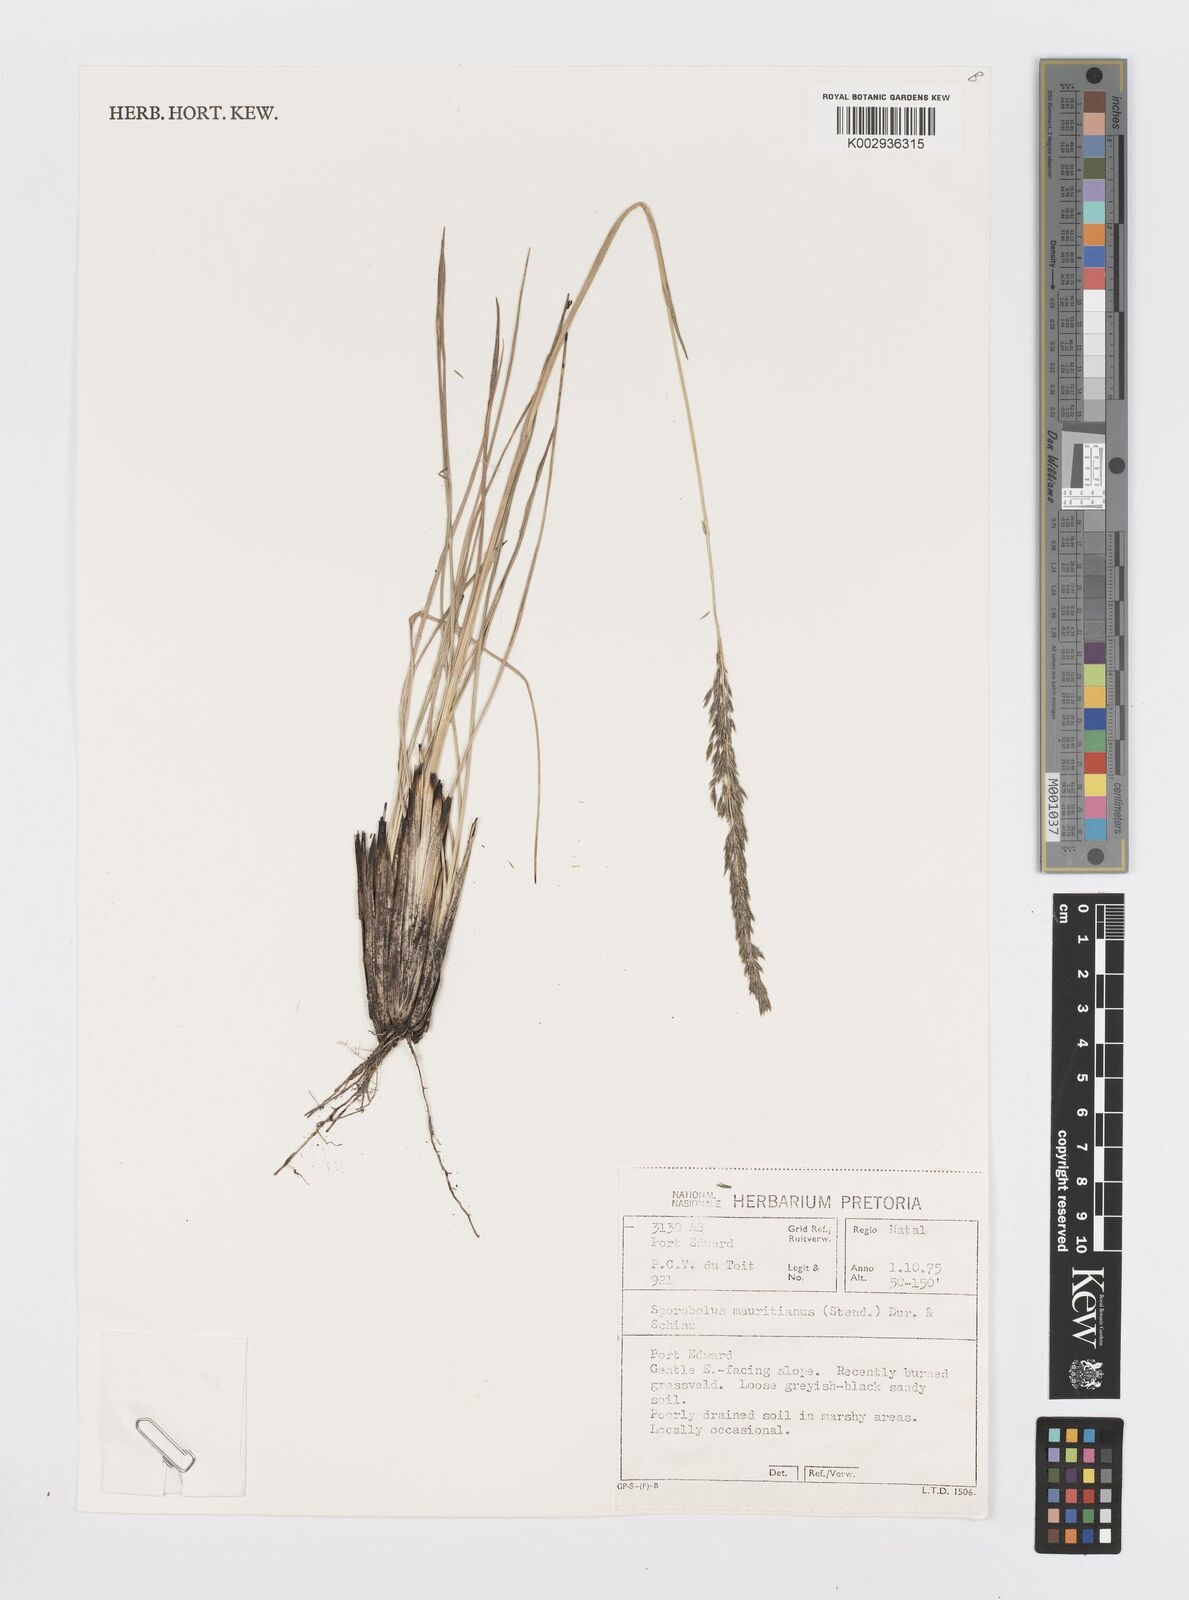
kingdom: Plantae
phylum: Tracheophyta
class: Liliopsida
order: Poales
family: Poaceae
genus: Sporobolus
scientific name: Sporobolus subulatus
